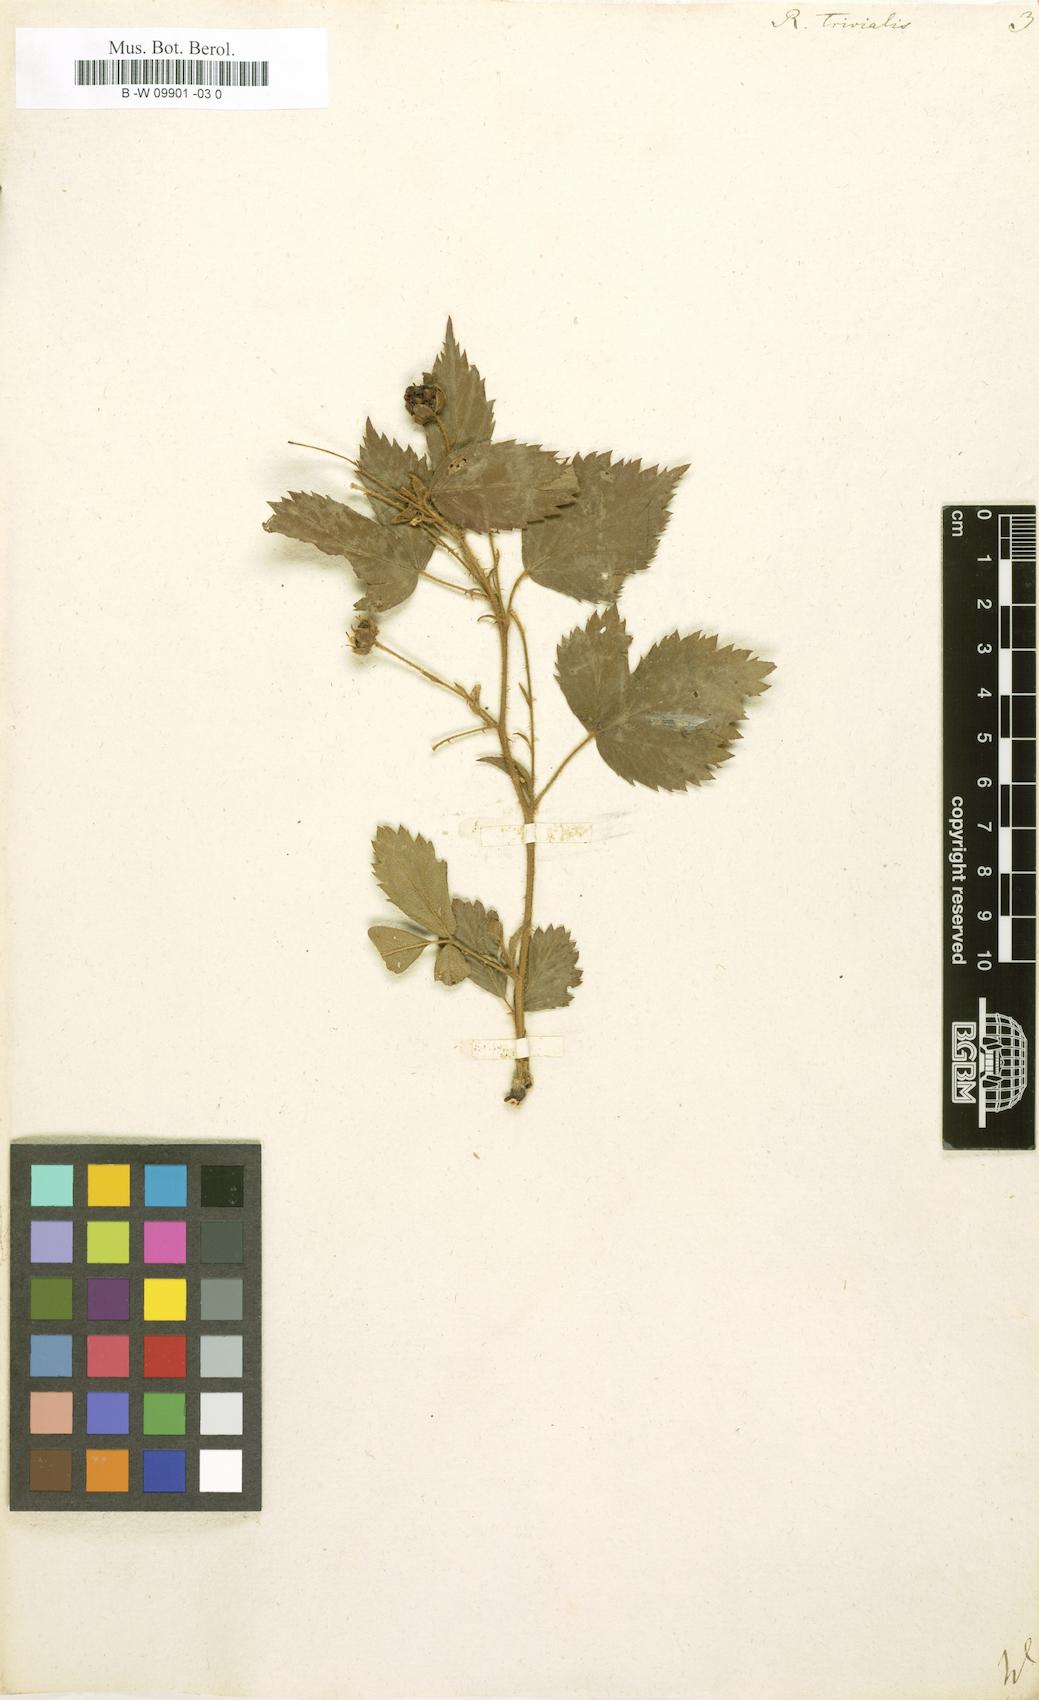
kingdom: Plantae
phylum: Tracheophyta
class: Magnoliopsida
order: Rosales
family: Rosaceae
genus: Rubus
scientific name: Rubus trivialis
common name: Southern dewberry
